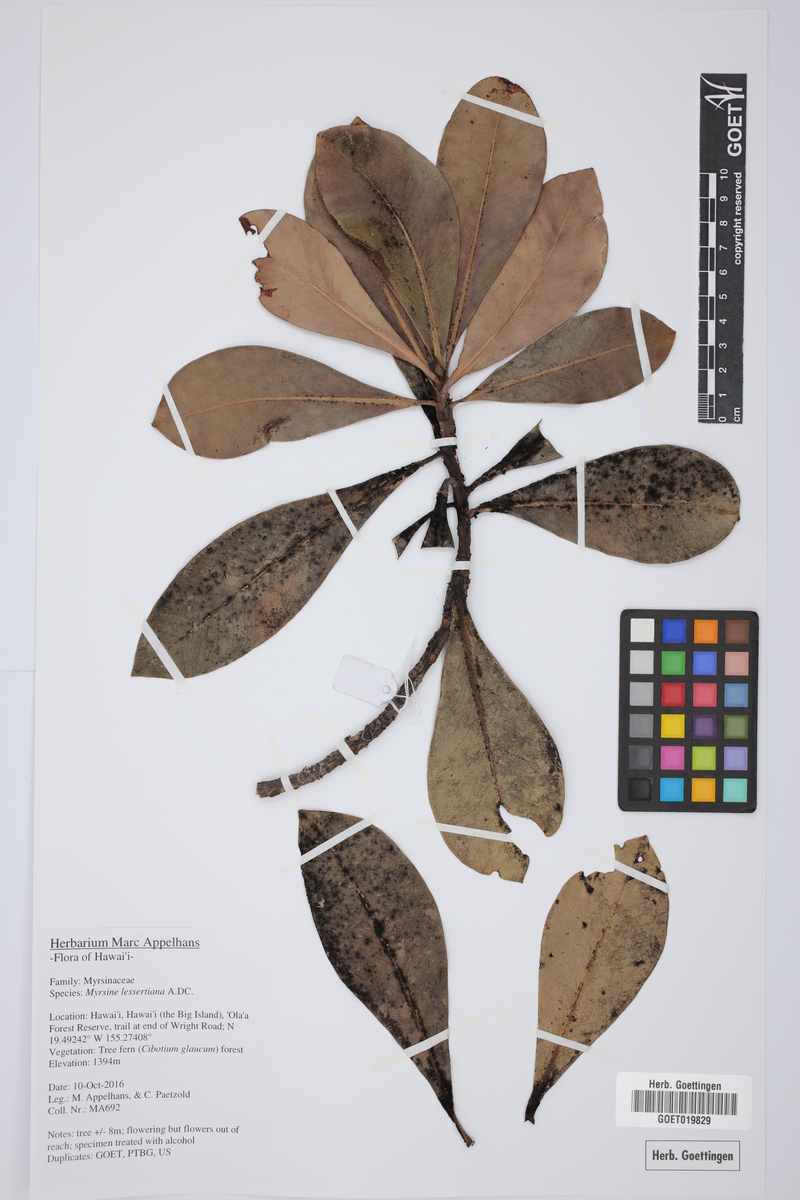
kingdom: Plantae
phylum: Tracheophyta
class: Magnoliopsida
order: Ericales
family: Primulaceae
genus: Myrsine
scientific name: Myrsine lessertiana
